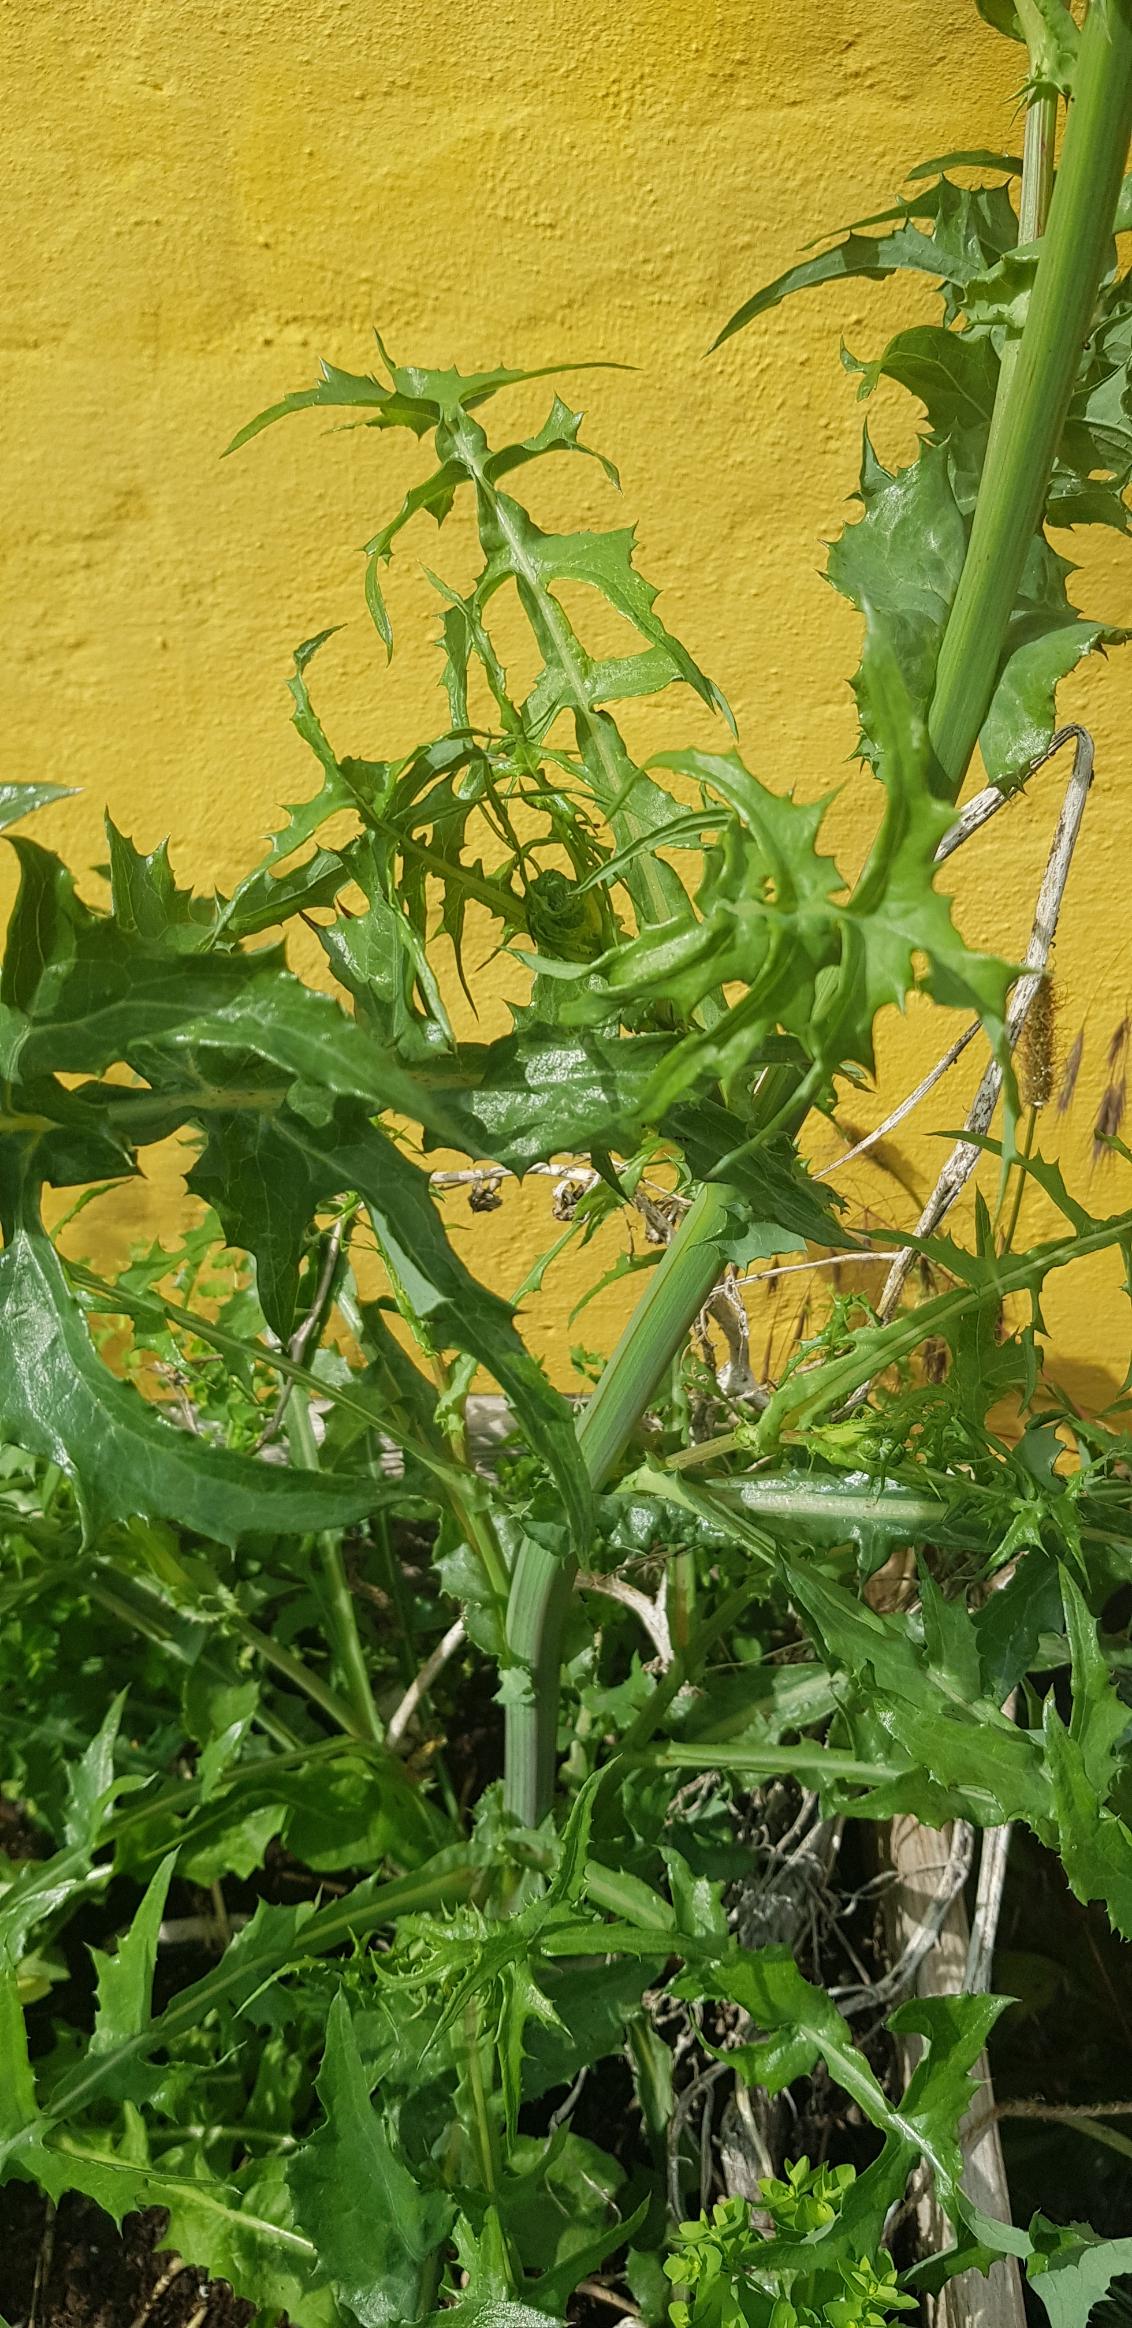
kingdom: Plantae
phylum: Tracheophyta
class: Magnoliopsida
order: Asterales
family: Asteraceae
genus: Sonchus
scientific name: Sonchus oleraceus
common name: Almindelig svinemælk
